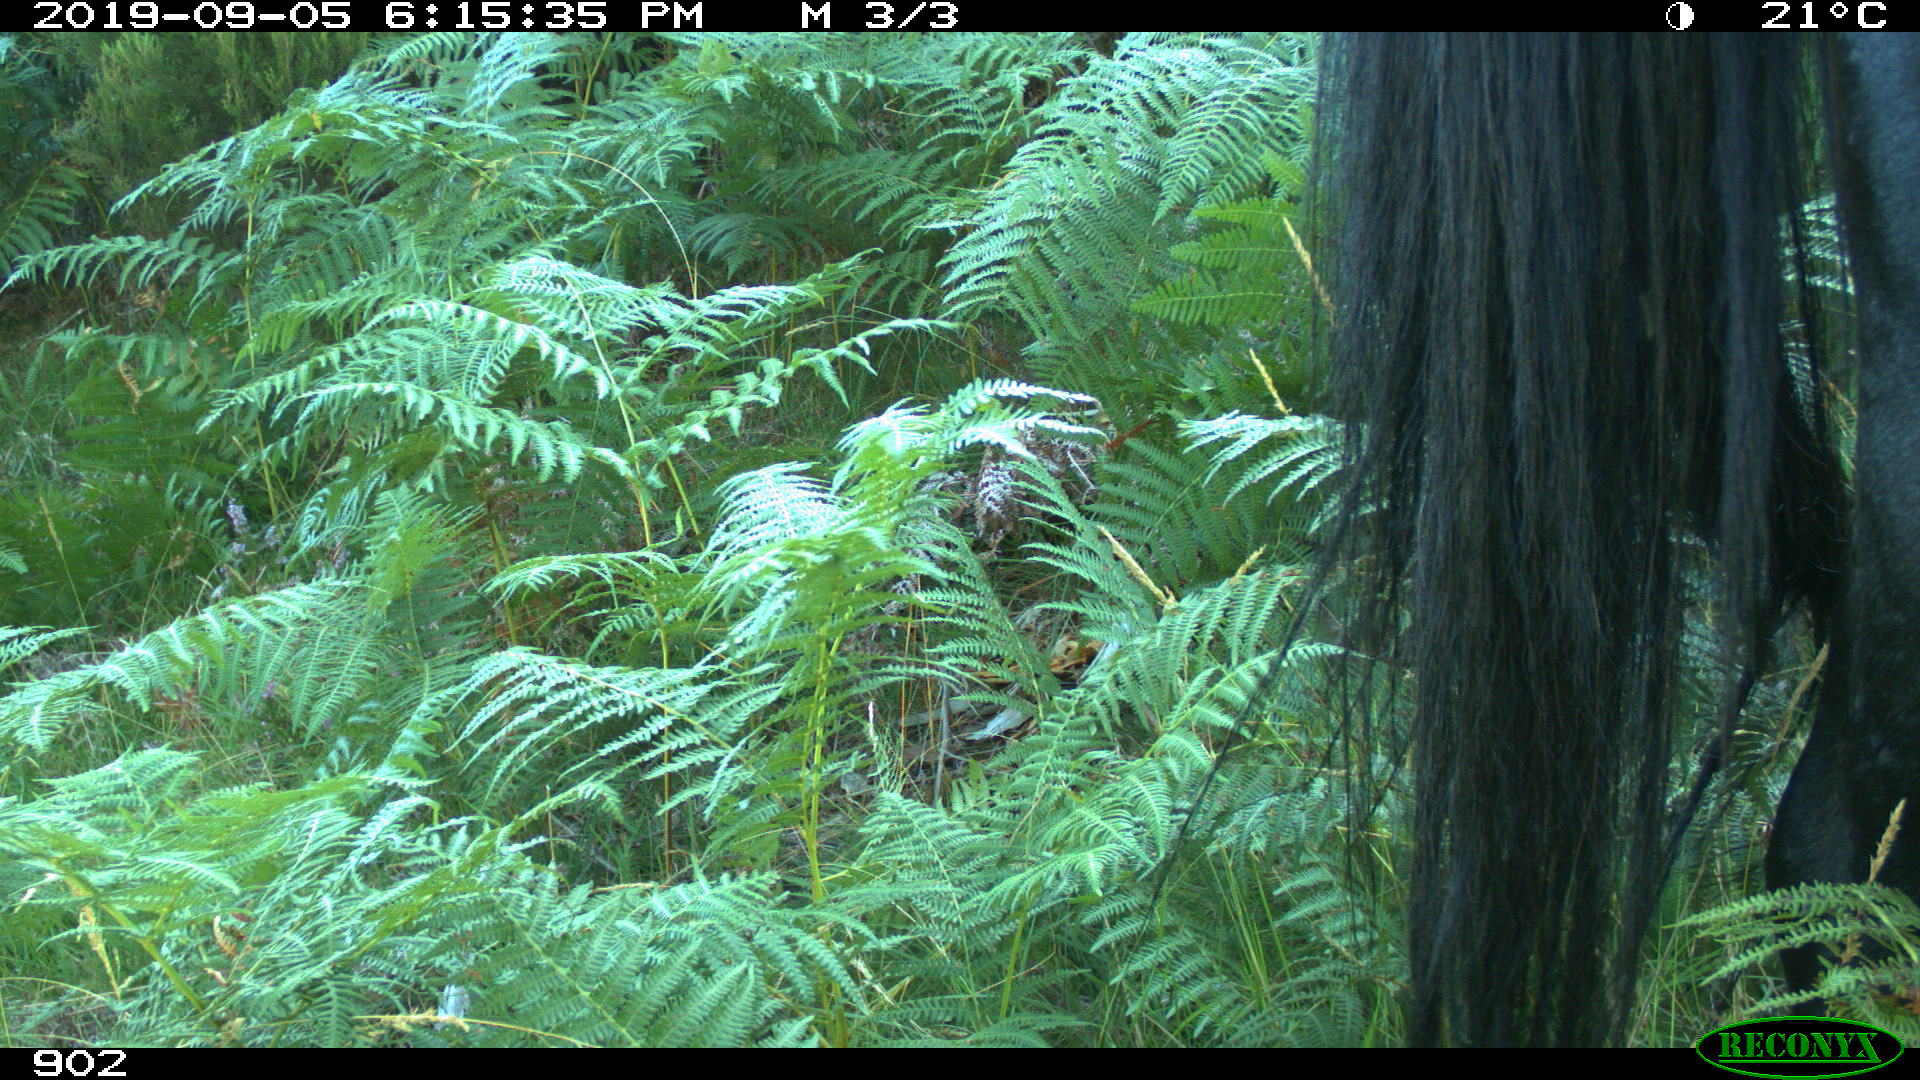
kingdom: Animalia
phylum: Chordata
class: Mammalia
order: Perissodactyla
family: Equidae
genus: Equus
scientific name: Equus caballus
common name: Horse
